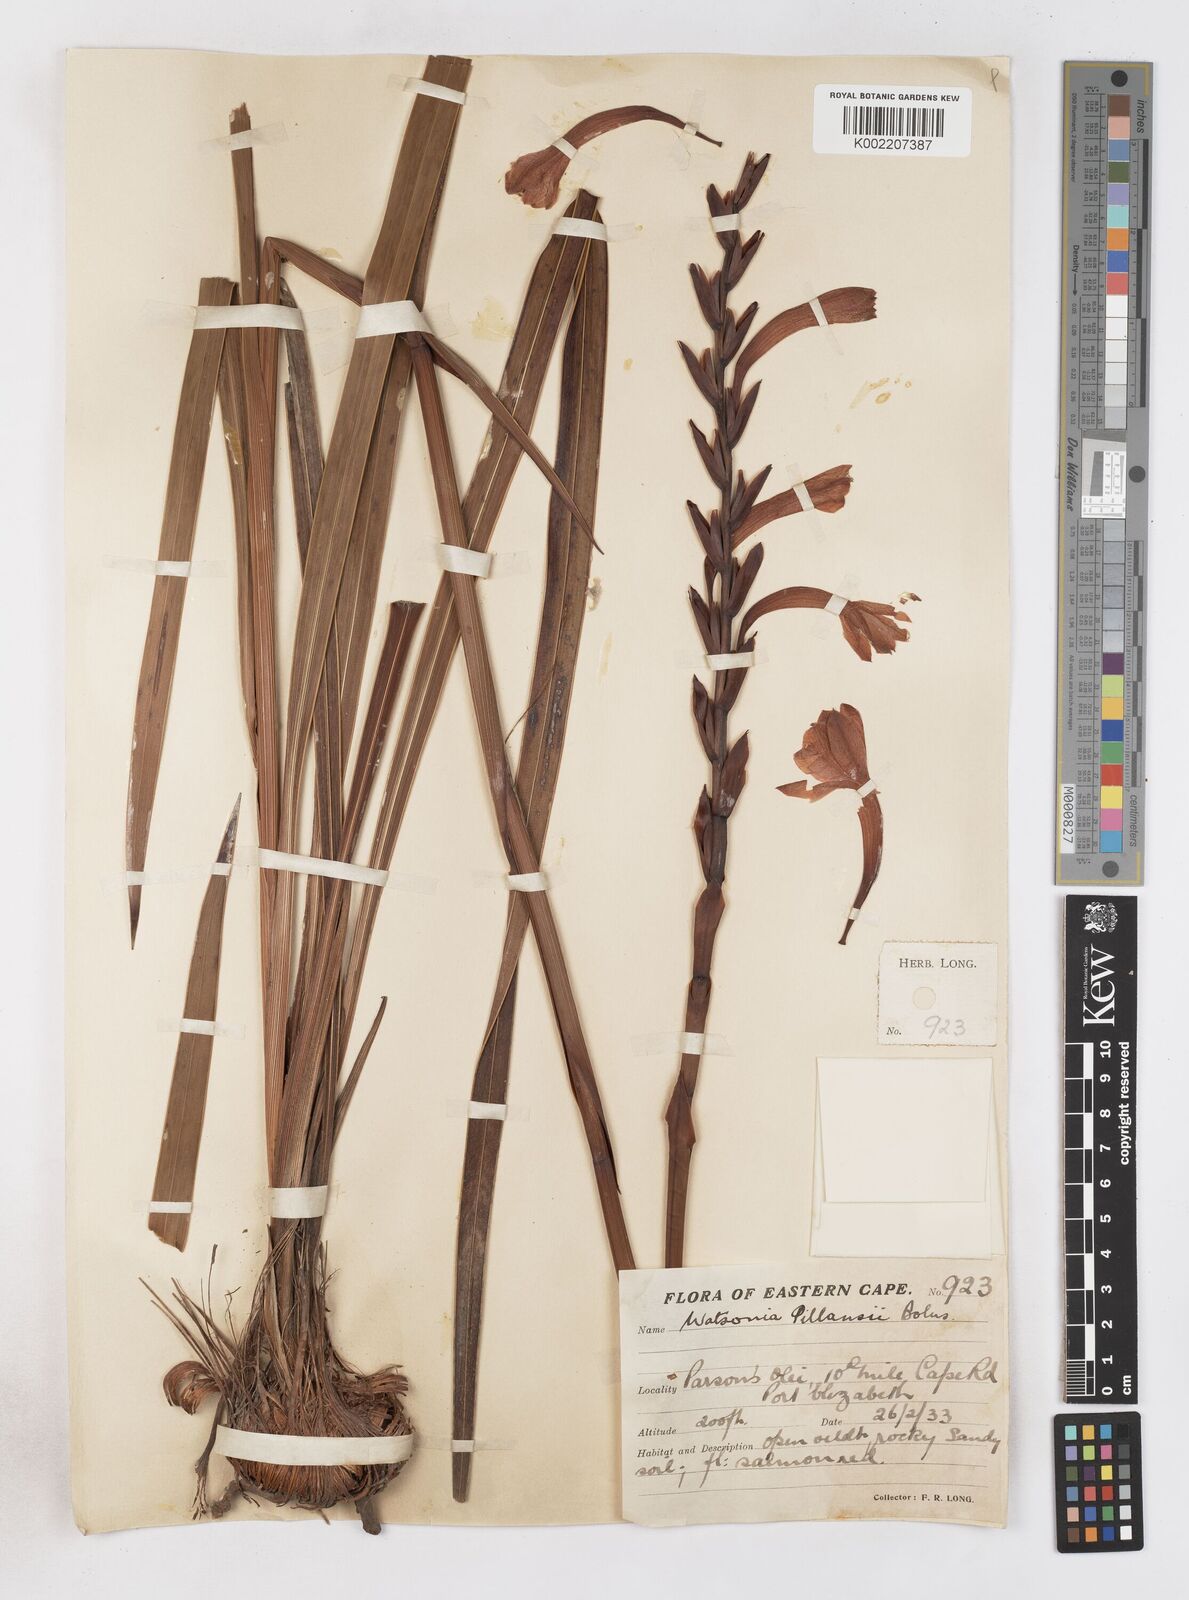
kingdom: Plantae
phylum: Tracheophyta
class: Liliopsida
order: Asparagales
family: Iridaceae
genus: Watsonia
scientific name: Watsonia pillansii
